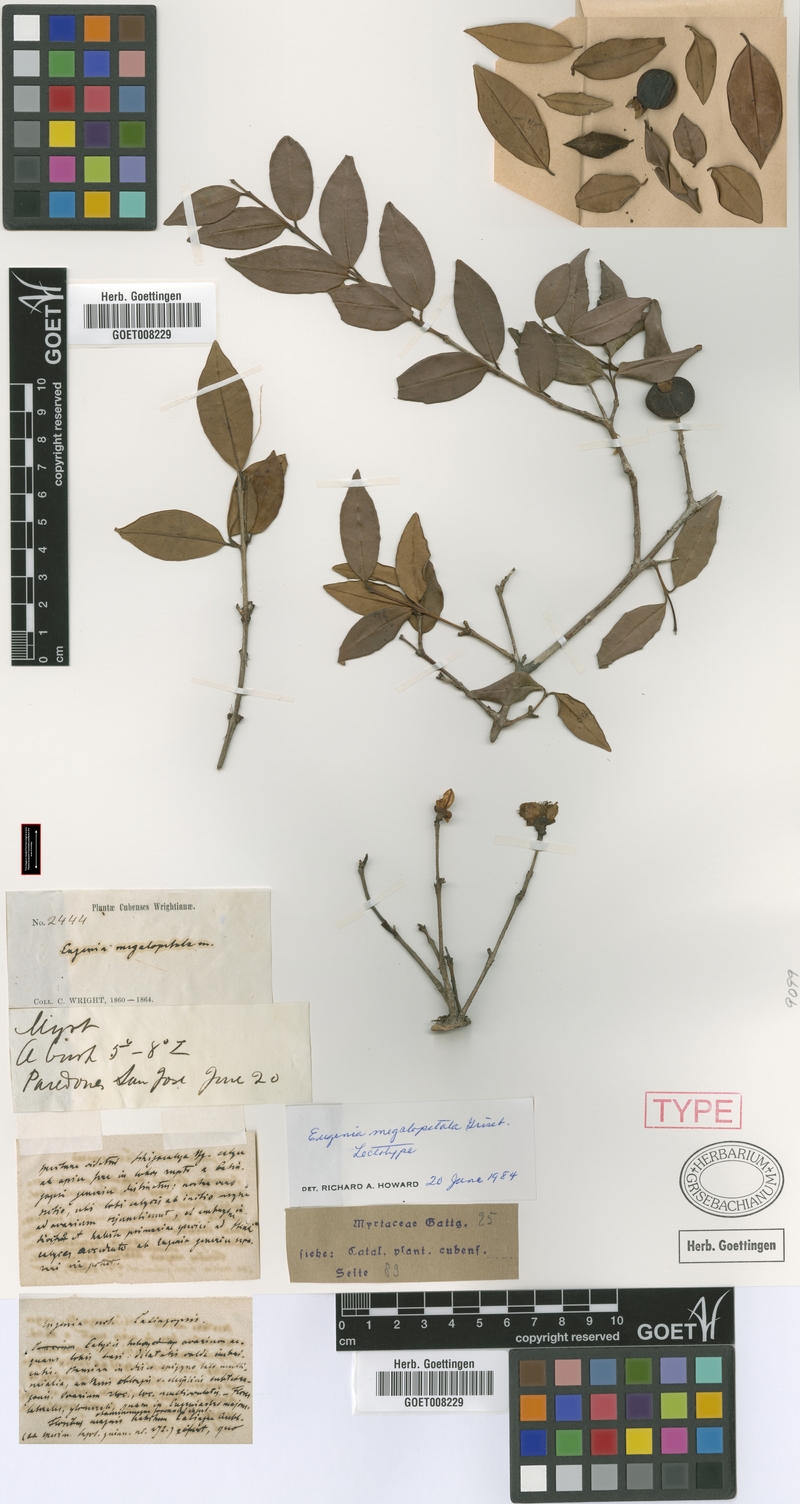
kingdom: Plantae
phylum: Tracheophyta
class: Magnoliopsida
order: Myrtales
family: Myrtaceae
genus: Eugenia
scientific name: Eugenia megalopetala
